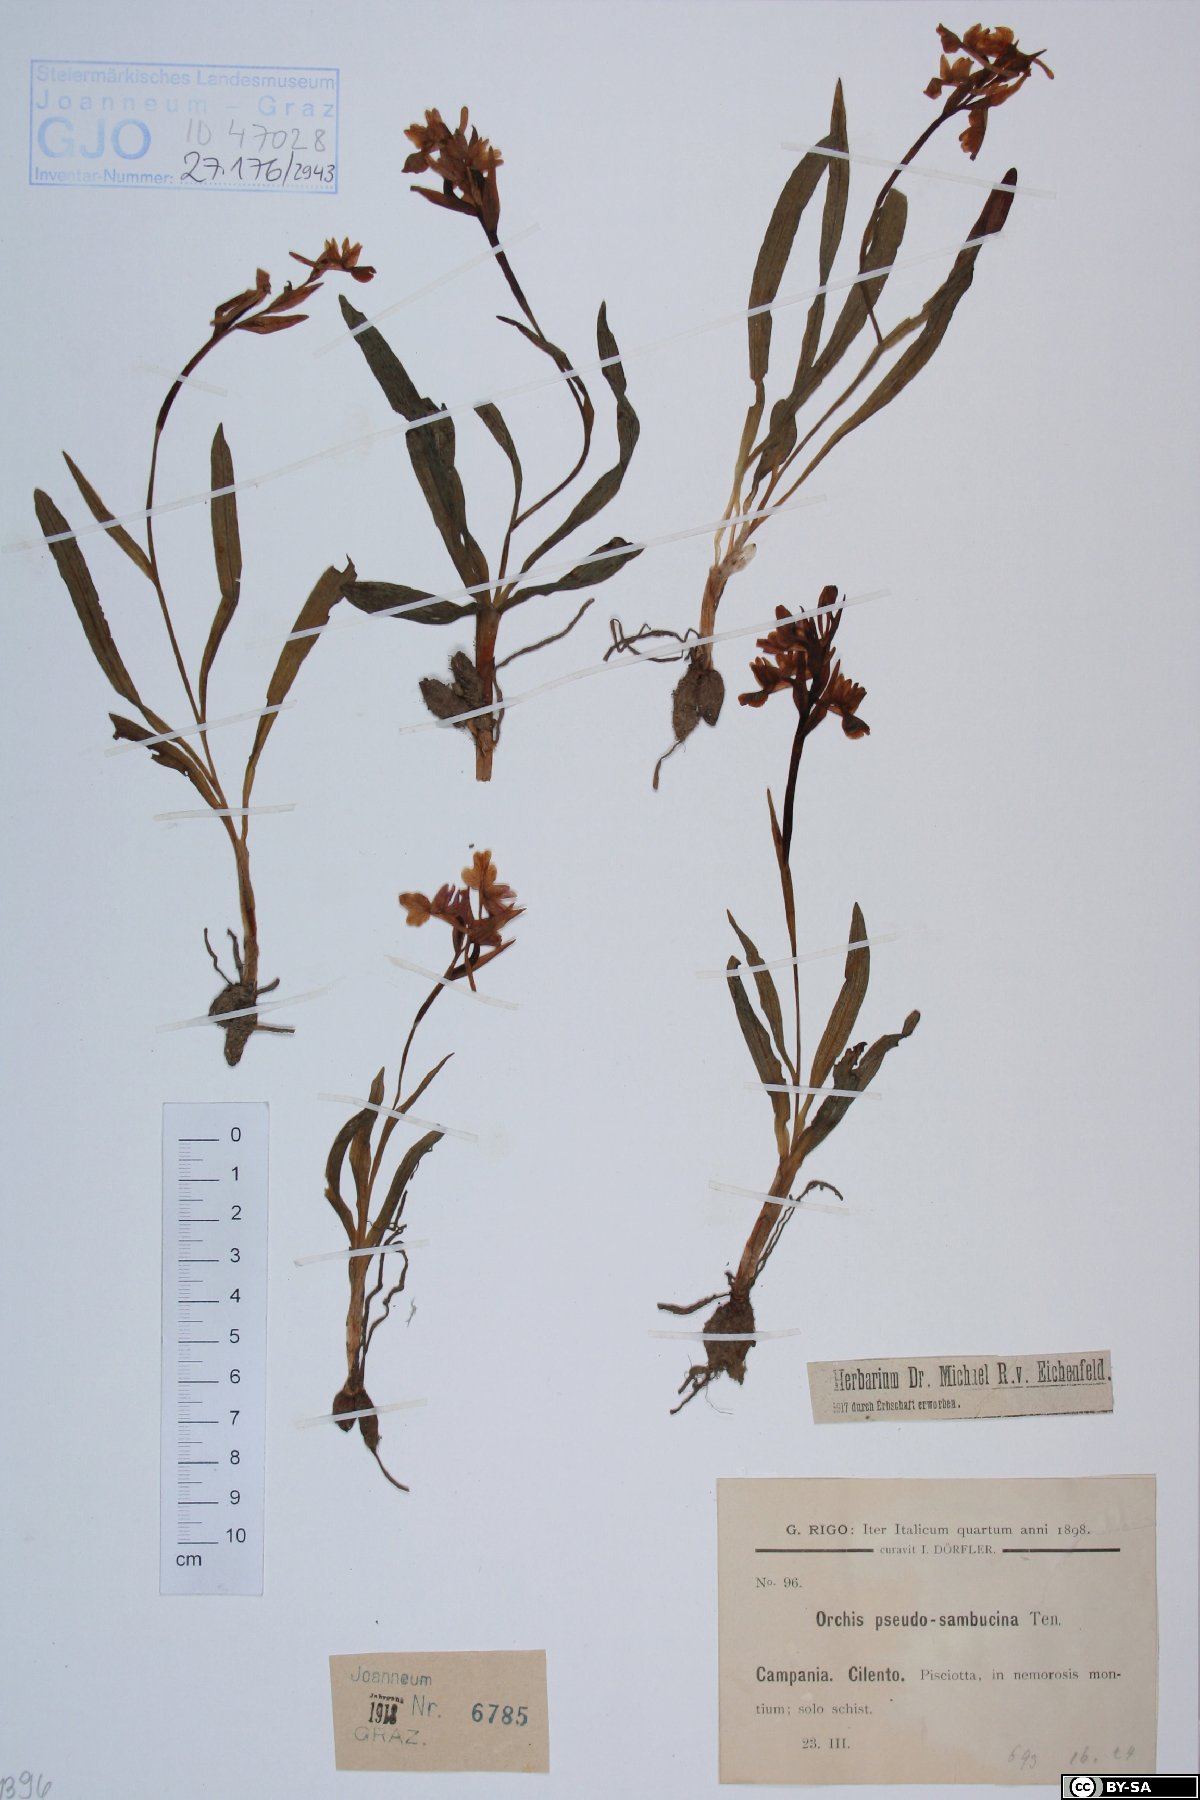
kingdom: Plantae
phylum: Tracheophyta
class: Liliopsida
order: Asparagales
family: Orchidaceae
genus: Dactylorhiza
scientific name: Dactylorhiza romana
